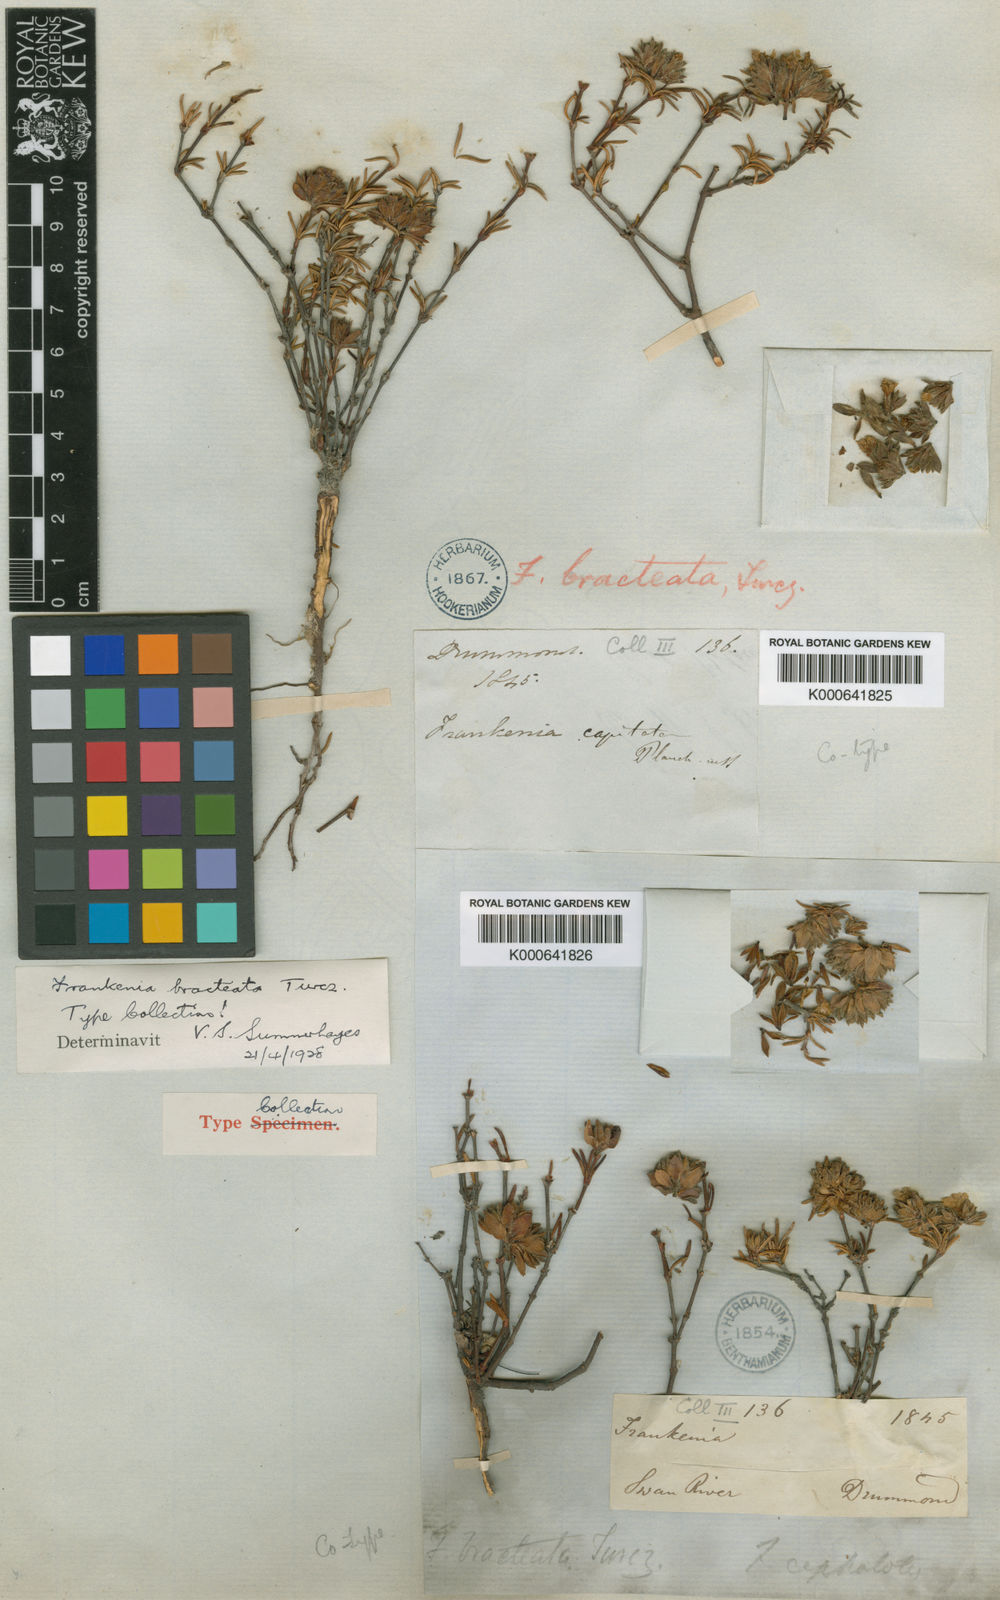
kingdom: Plantae
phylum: Tracheophyta
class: Magnoliopsida
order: Caryophyllales
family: Frankeniaceae
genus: Frankenia
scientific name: Frankenia bracteata
